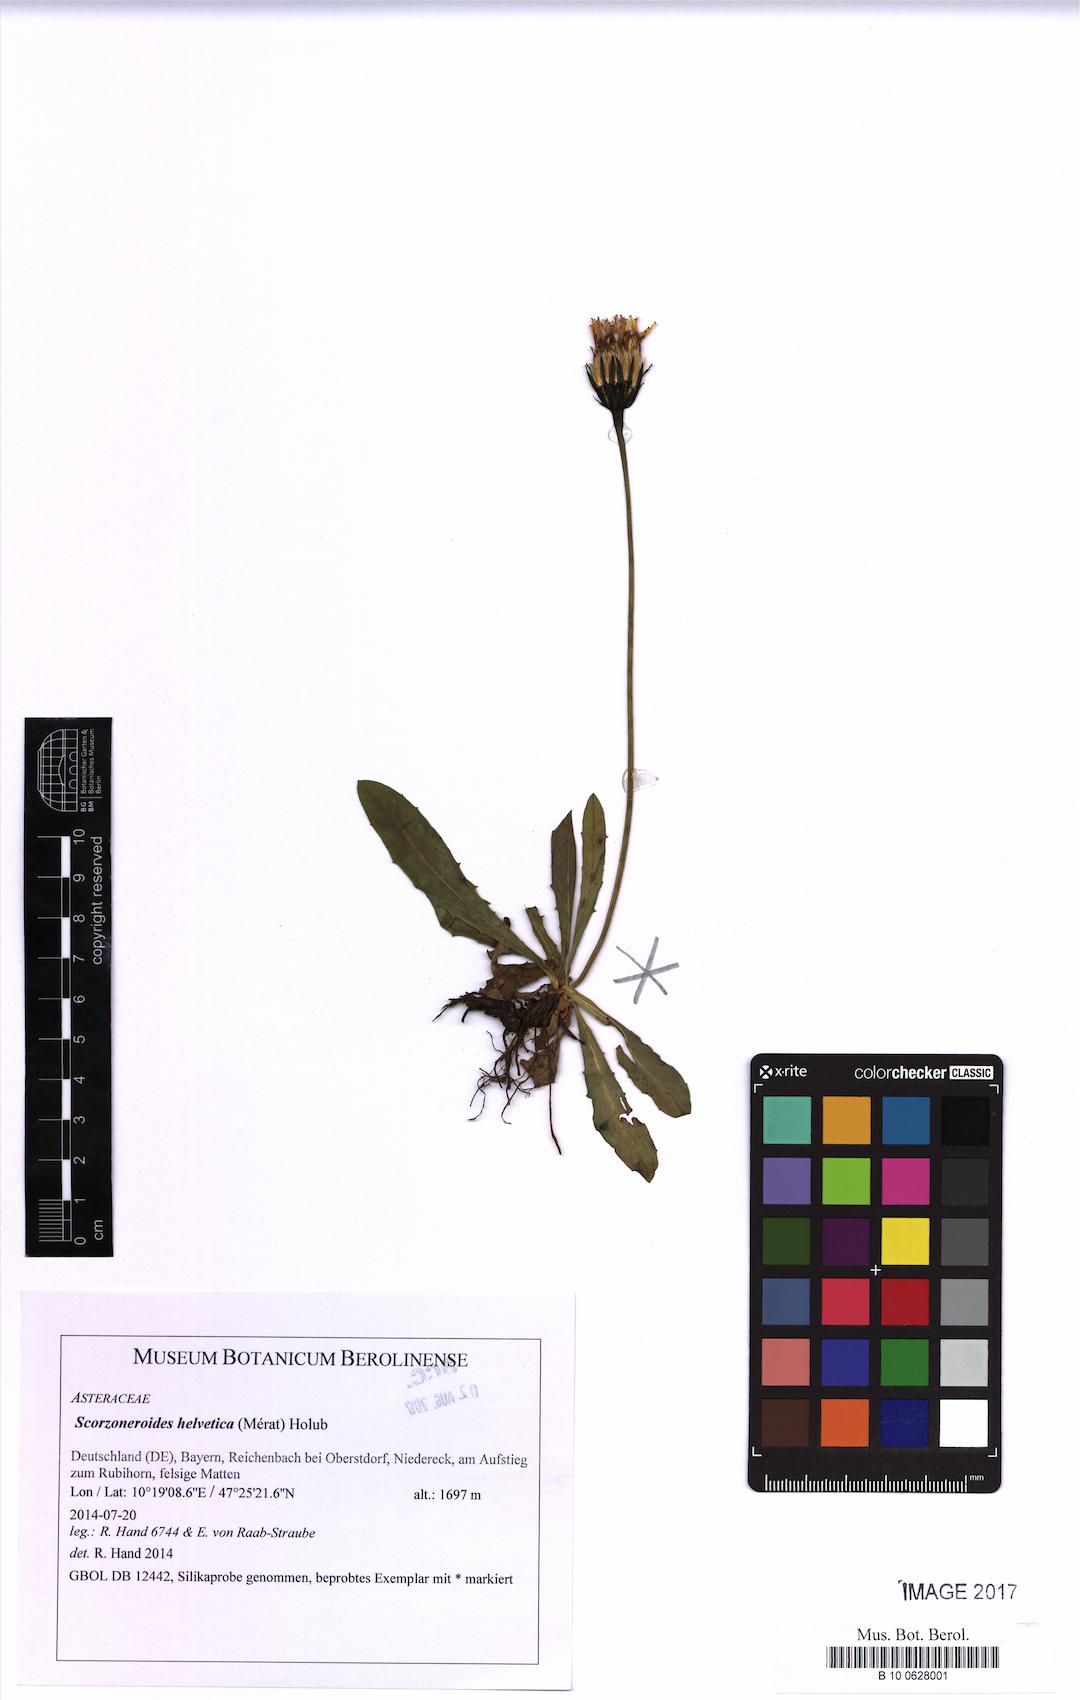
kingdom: Plantae
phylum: Tracheophyta
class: Magnoliopsida
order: Asterales
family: Asteraceae
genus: Scorzoneroides
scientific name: Scorzoneroides helvetica
